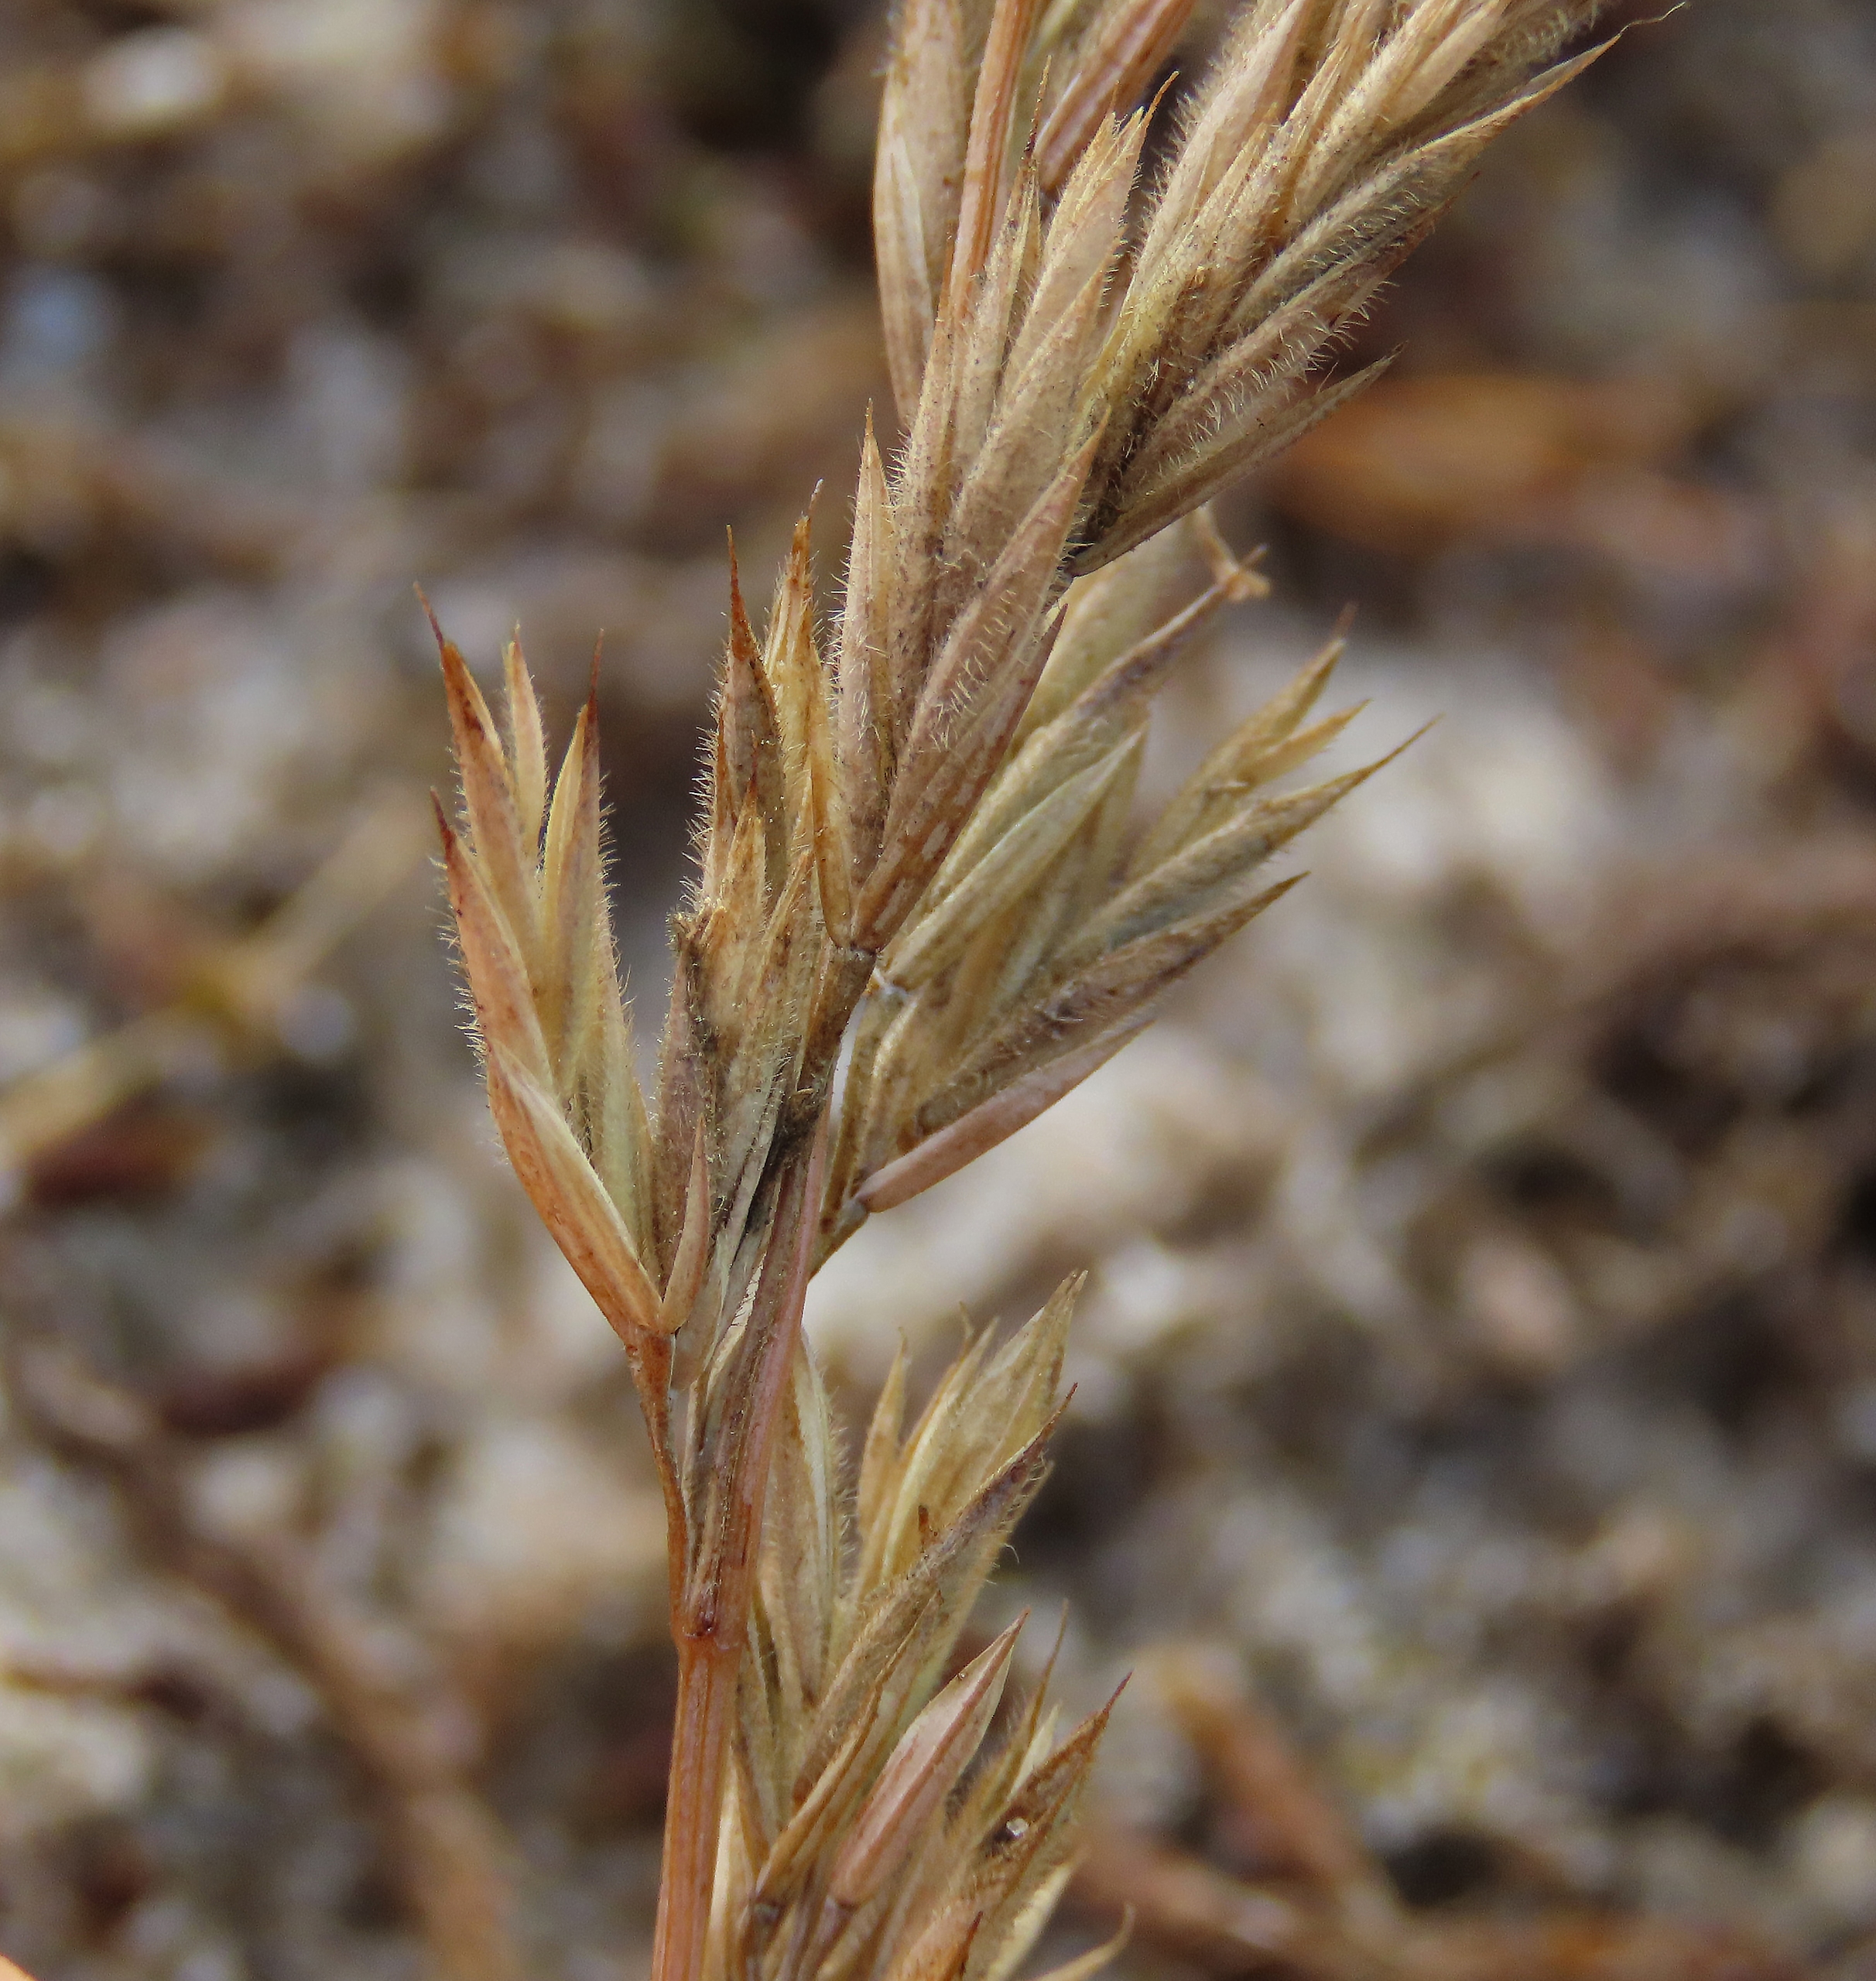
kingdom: Plantae
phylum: Tracheophyta
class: Liliopsida
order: Poales
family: Poaceae
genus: Festuca
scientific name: Festuca rubra
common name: Klit-svingel
